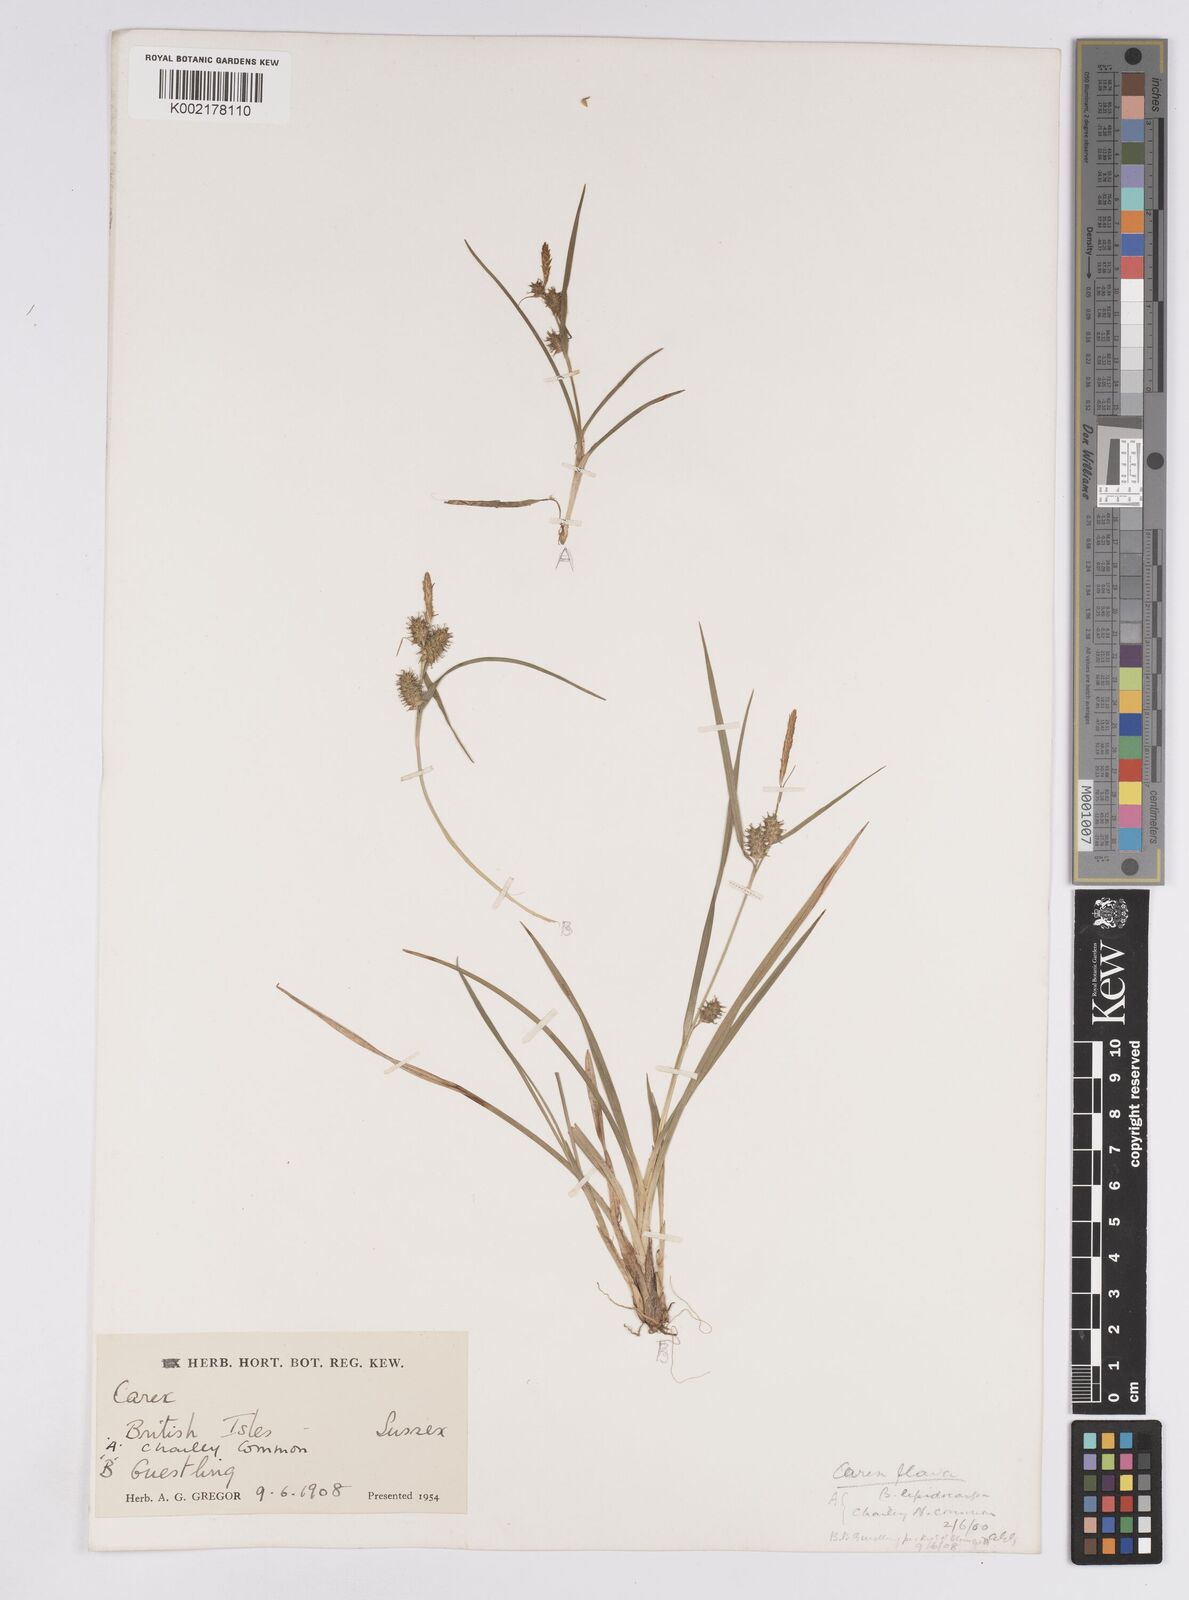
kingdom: Plantae
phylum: Tracheophyta
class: Liliopsida
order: Poales
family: Cyperaceae
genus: Carex
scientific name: Carex demissa
